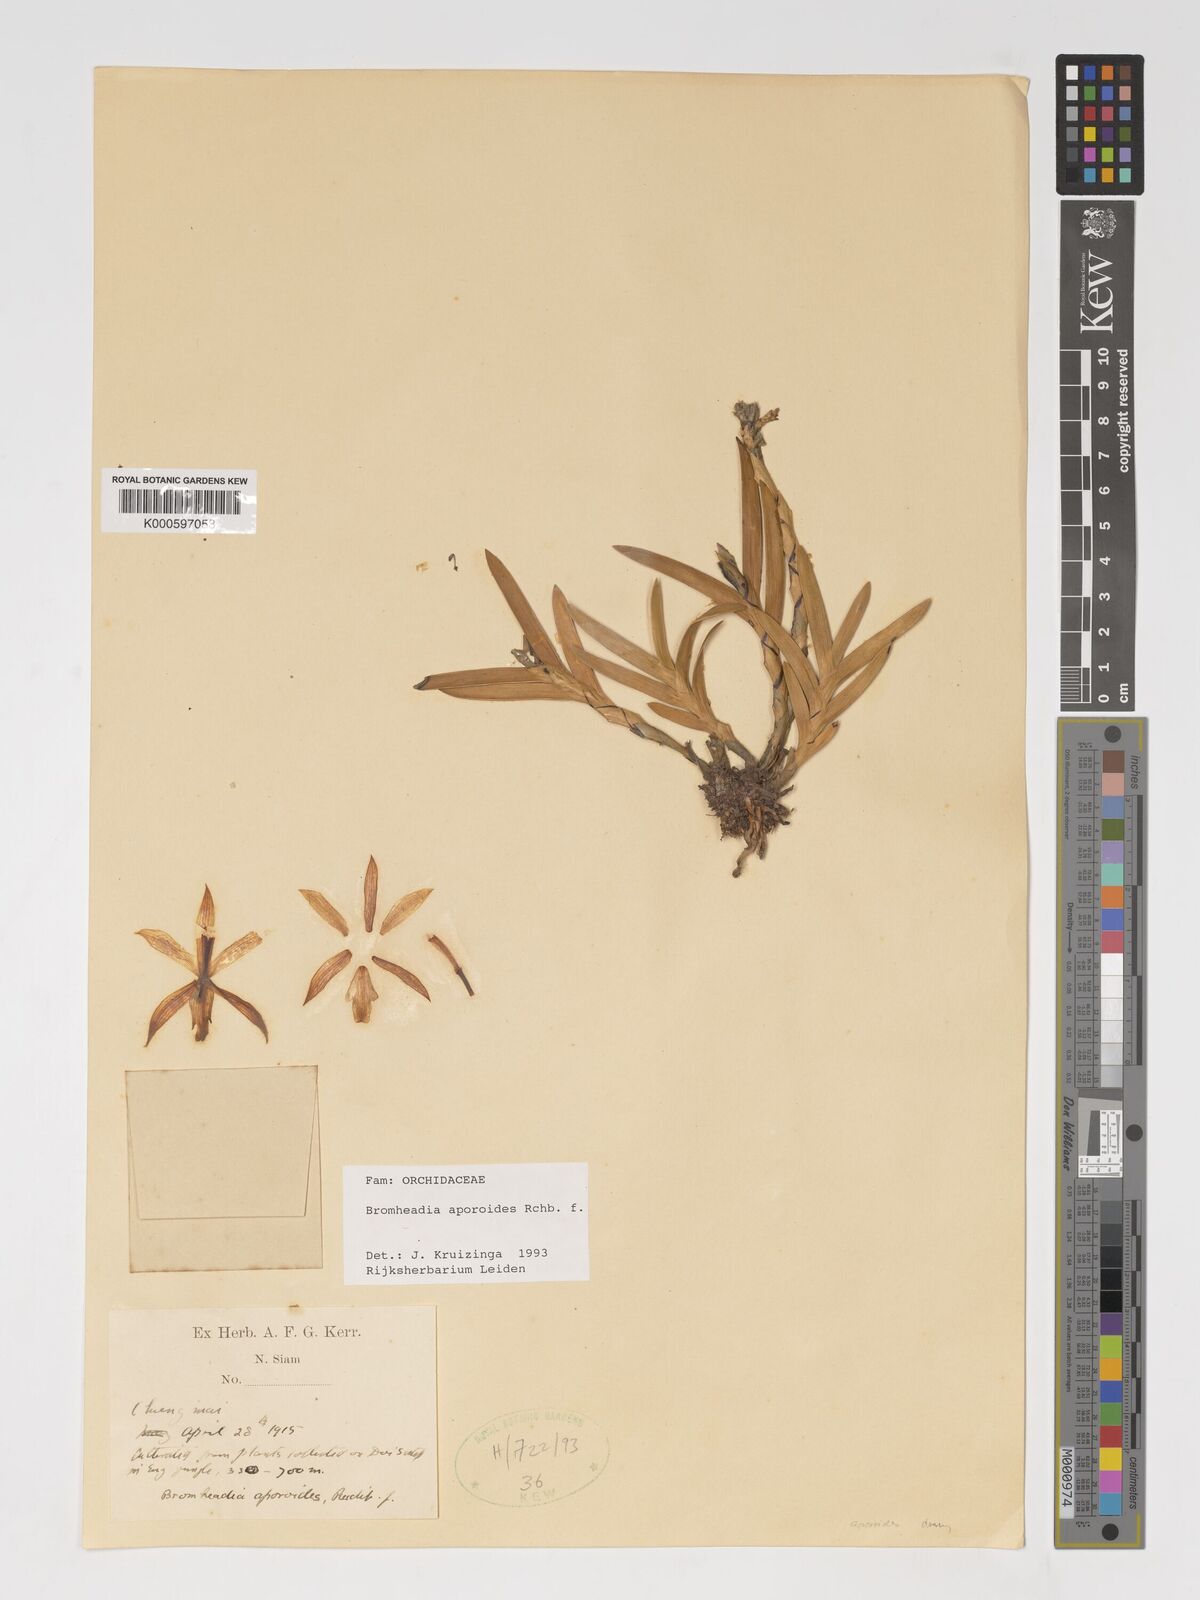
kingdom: Plantae
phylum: Tracheophyta
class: Liliopsida
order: Asparagales
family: Orchidaceae
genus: Bromheadia
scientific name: Bromheadia aporoides
